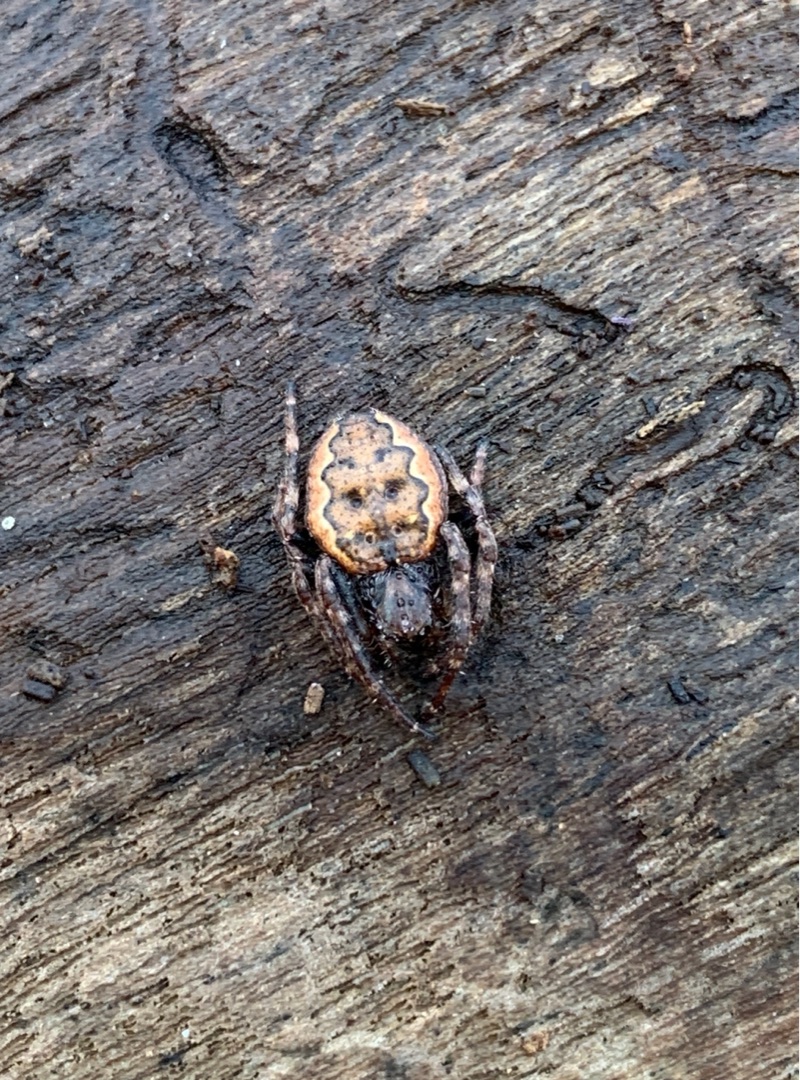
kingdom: Animalia
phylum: Arthropoda
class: Arachnida
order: Araneae
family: Araneidae
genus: Nuctenea
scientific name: Nuctenea umbratica
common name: Flad hjulspinder
